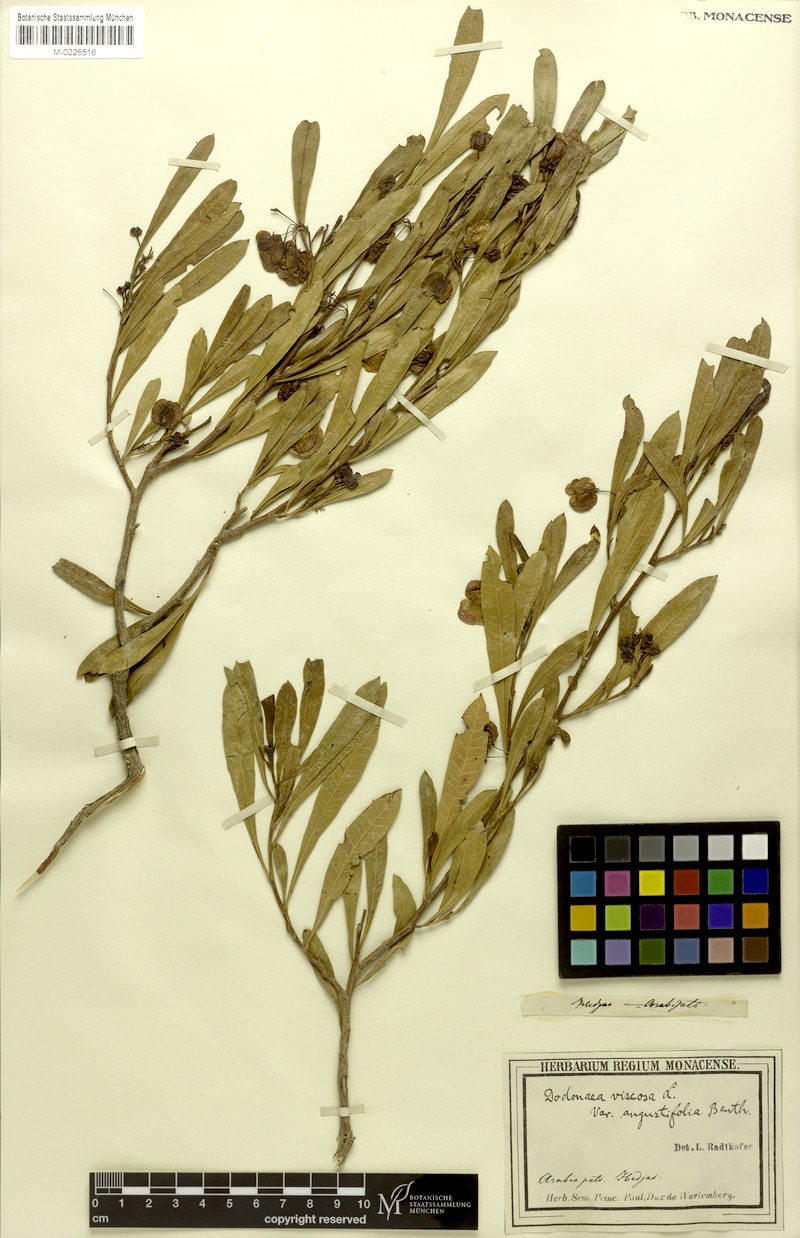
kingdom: Plantae
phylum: Tracheophyta
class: Magnoliopsida
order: Sapindales
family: Sapindaceae
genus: Dodonaea
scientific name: Dodonaea viscosa
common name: Hopbush
